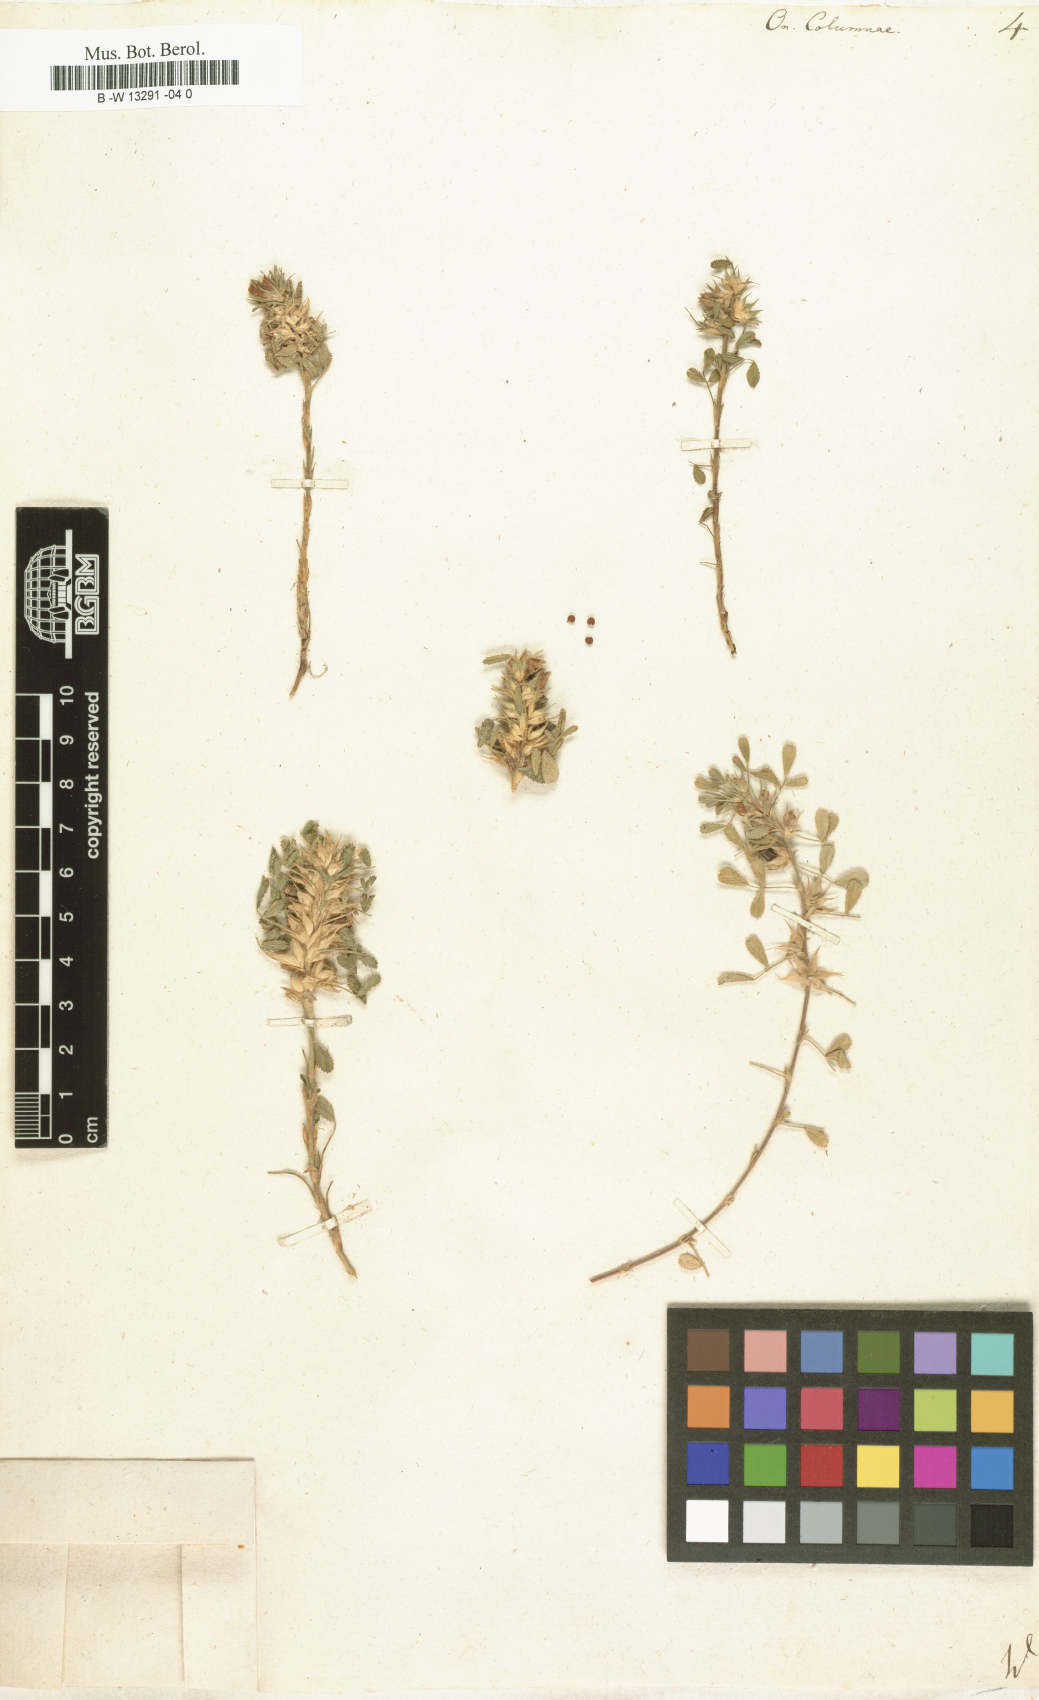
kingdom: Plantae
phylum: Tracheophyta
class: Magnoliopsida
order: Fabales
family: Fabaceae
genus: Ononis
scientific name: Ononis pusilla
